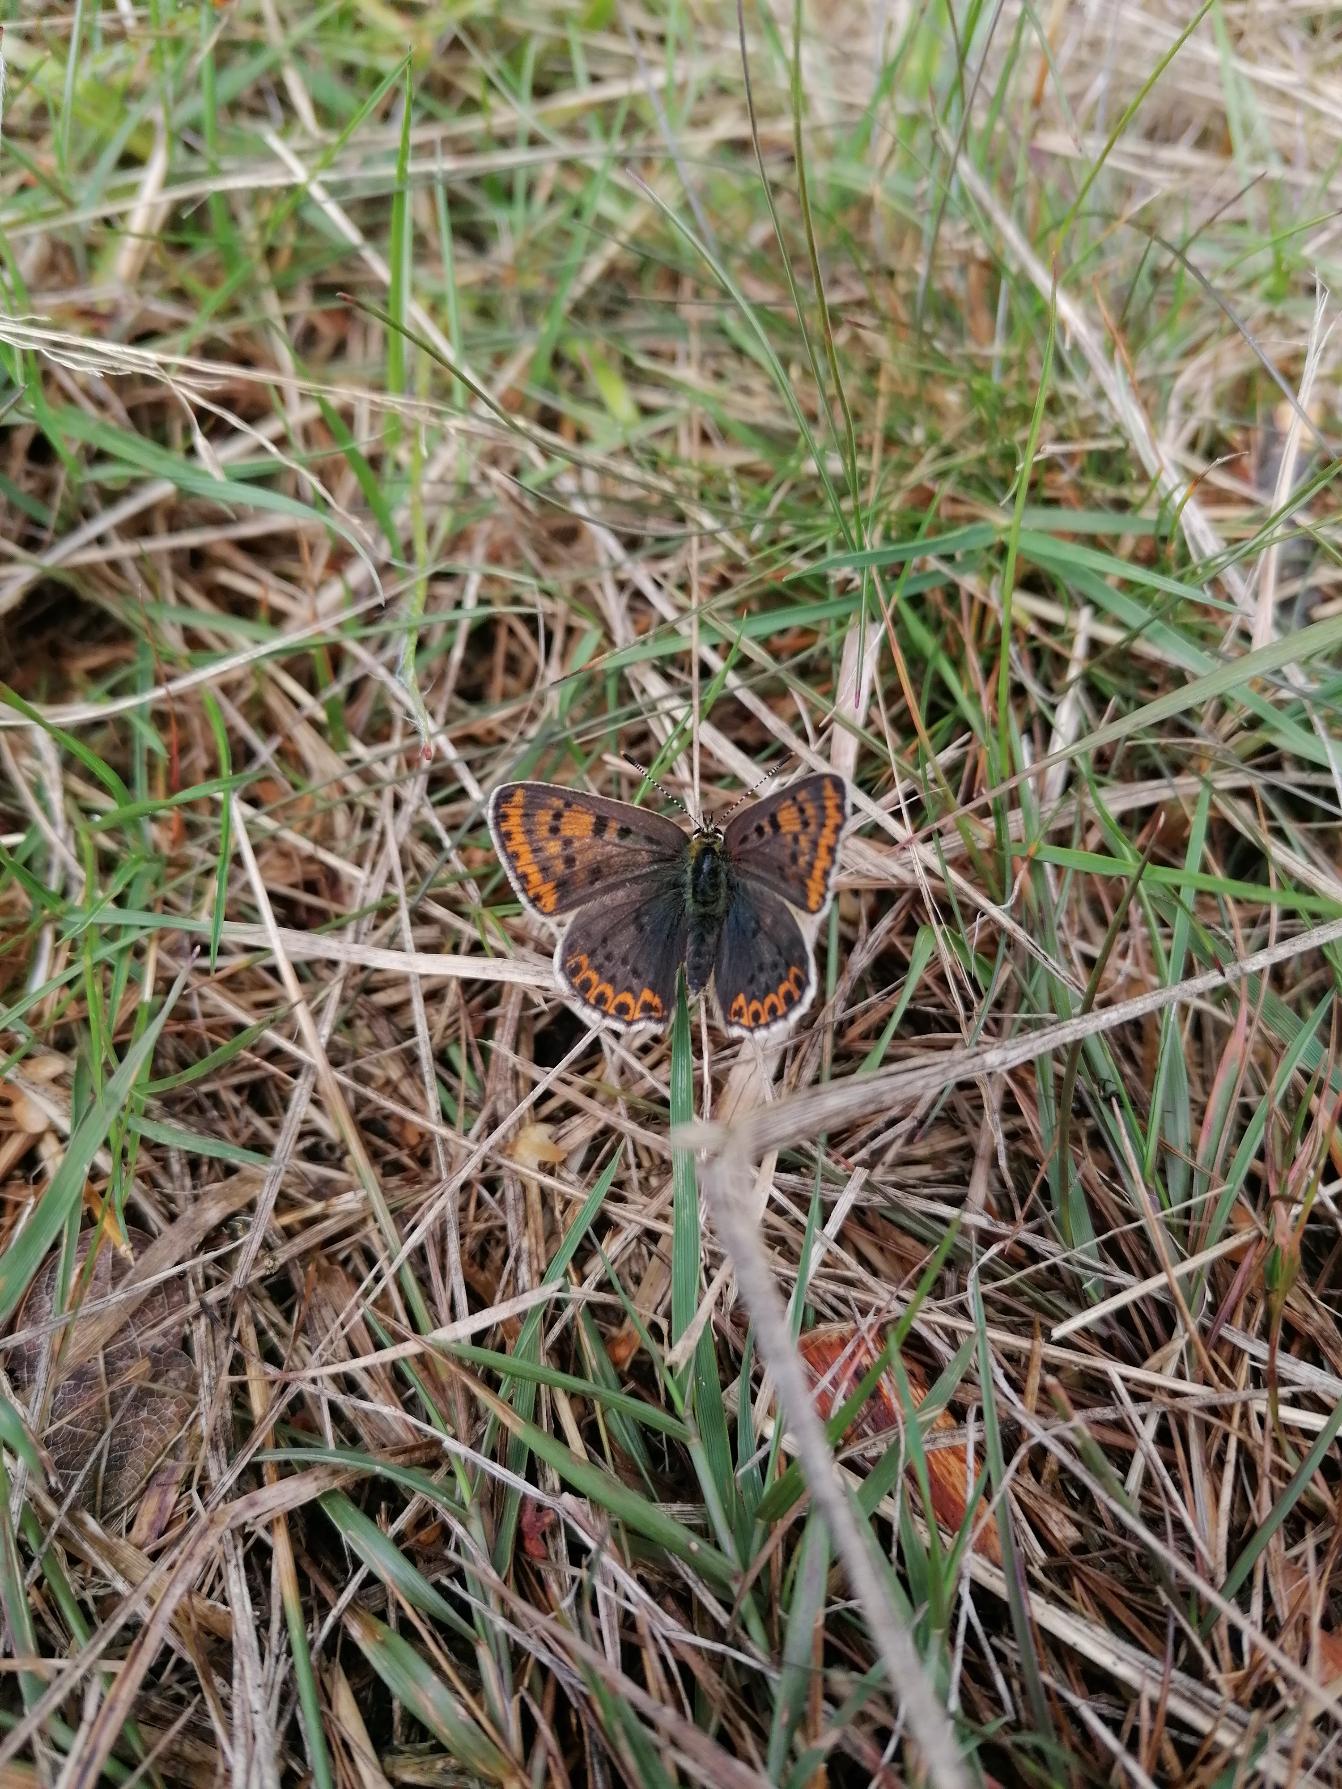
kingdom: Animalia
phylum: Arthropoda
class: Insecta
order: Lepidoptera
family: Lycaenidae
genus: Loweia
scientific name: Loweia tityrus
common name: Sort ildfugl
